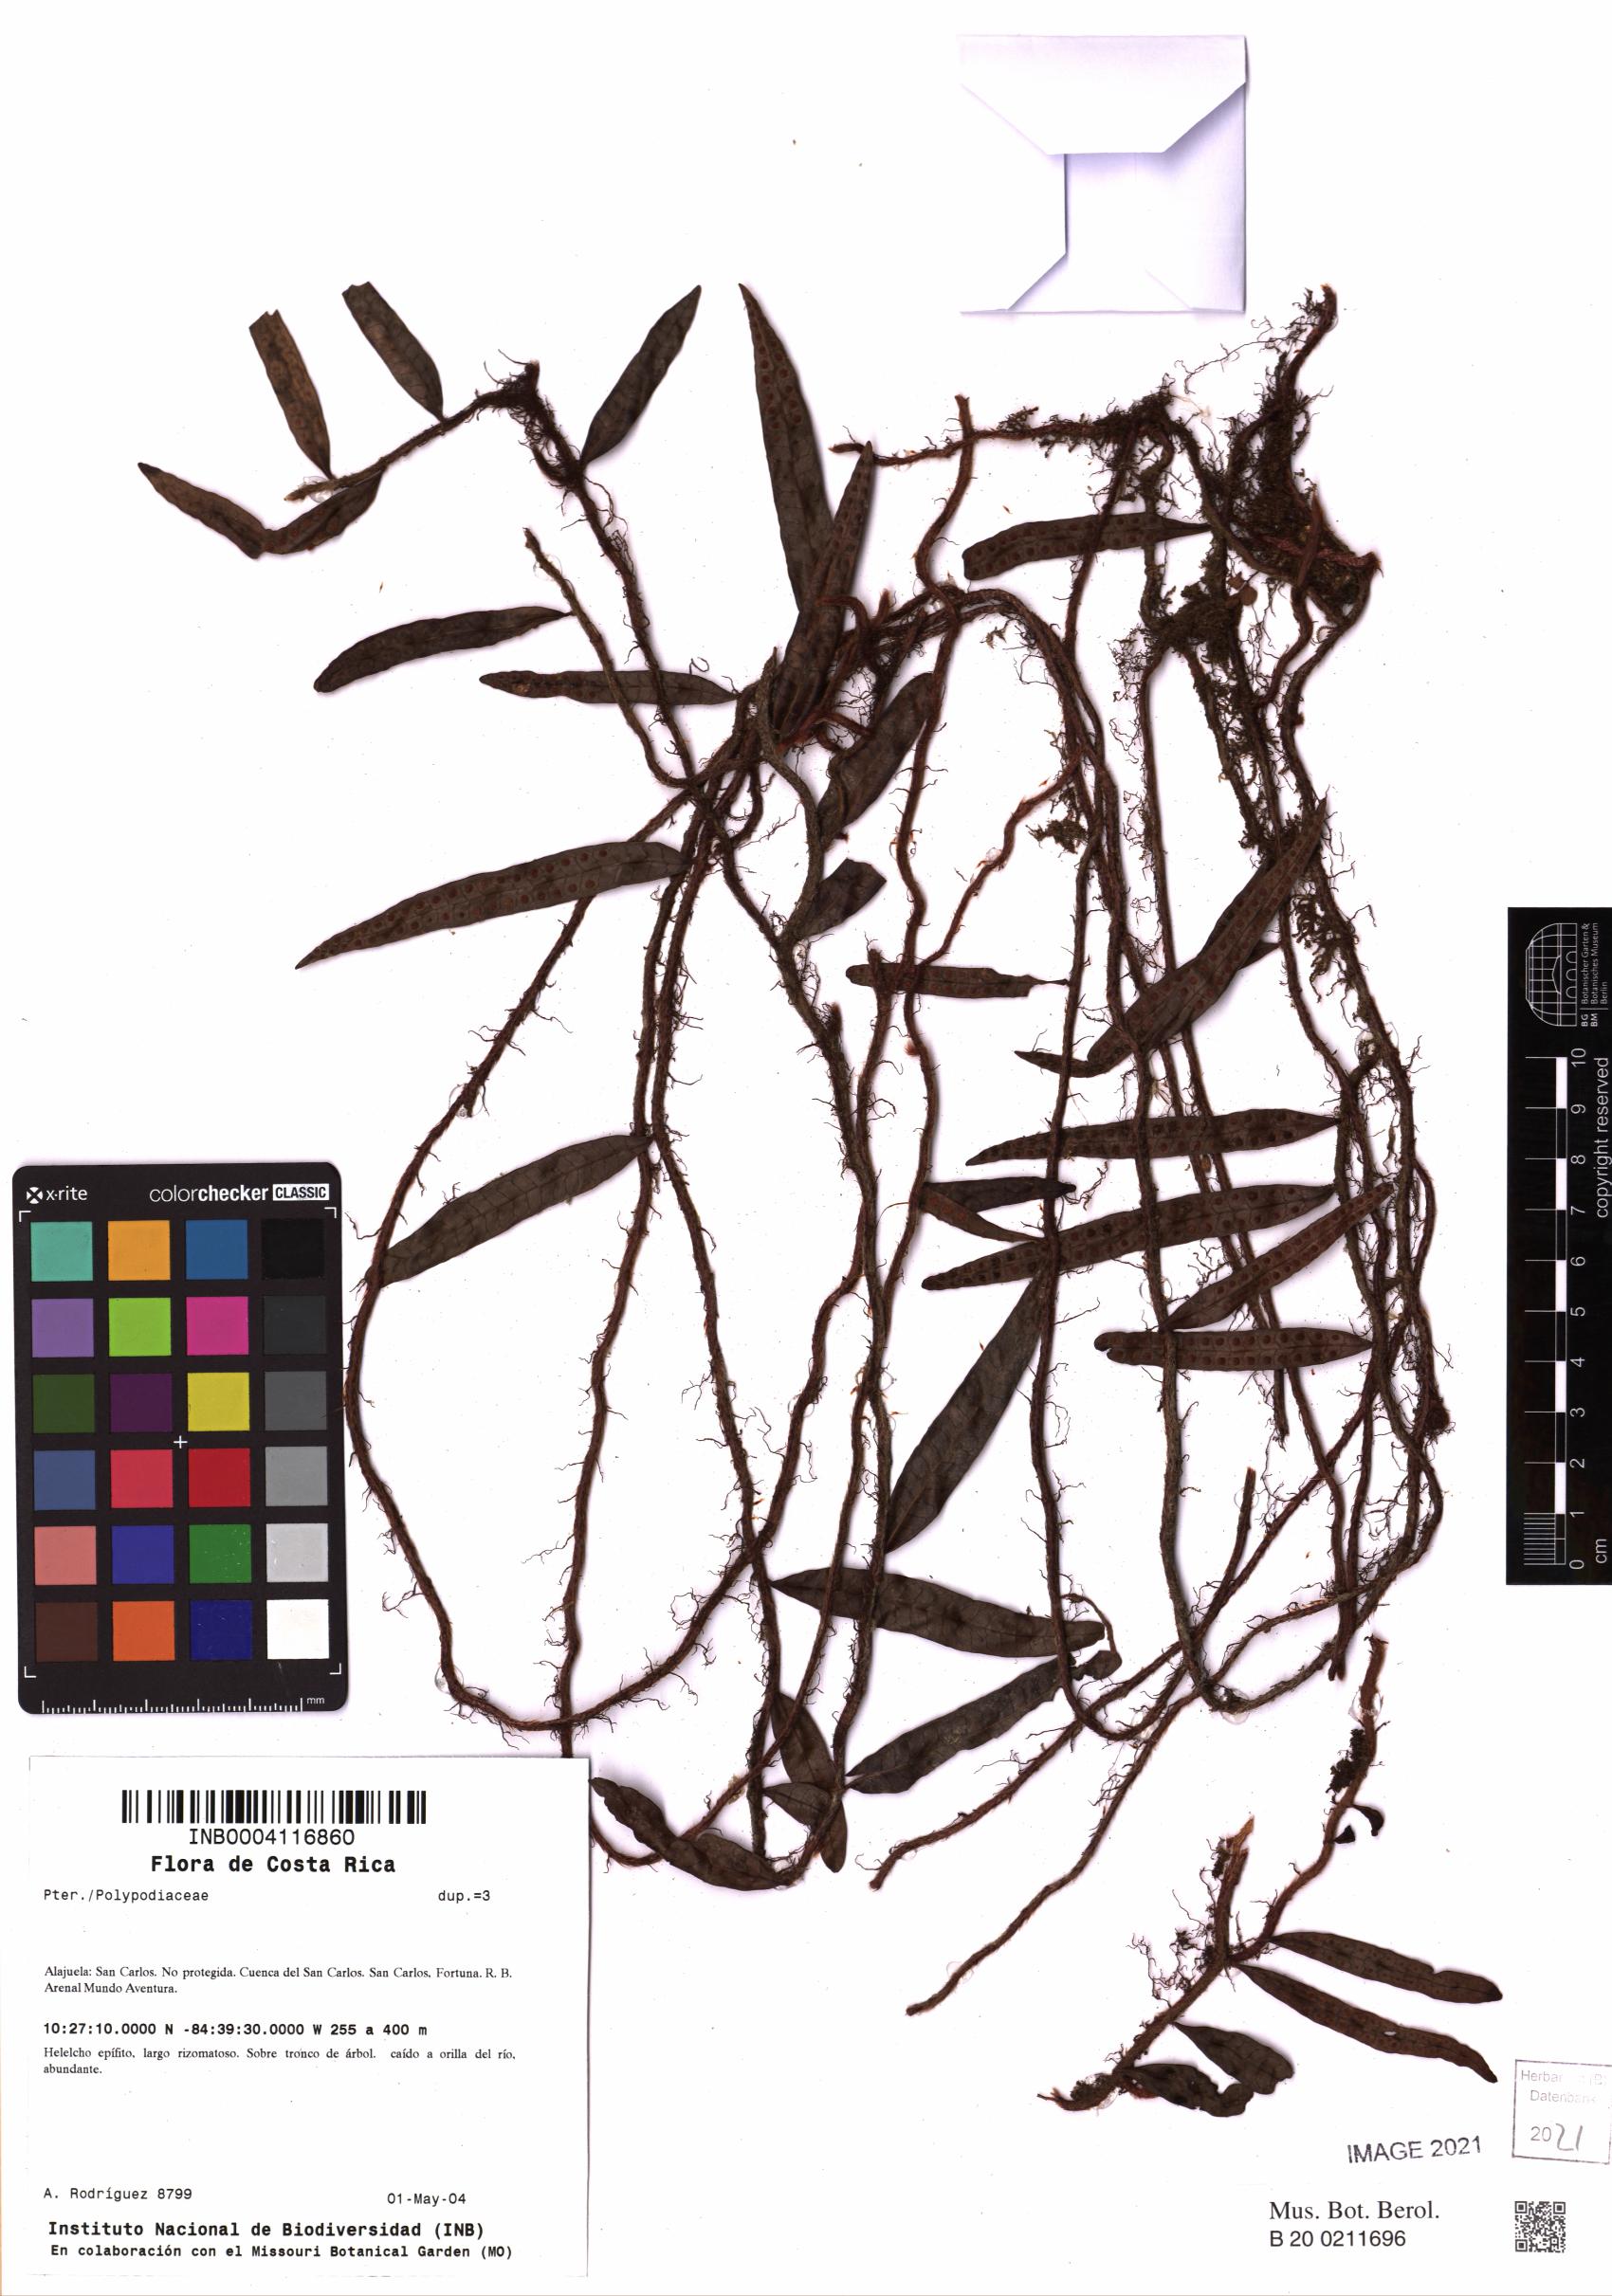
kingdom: Plantae
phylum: Tracheophyta
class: Polypodiopsida
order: Polypodiales
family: Polypodiaceae
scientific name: Polypodiaceae
